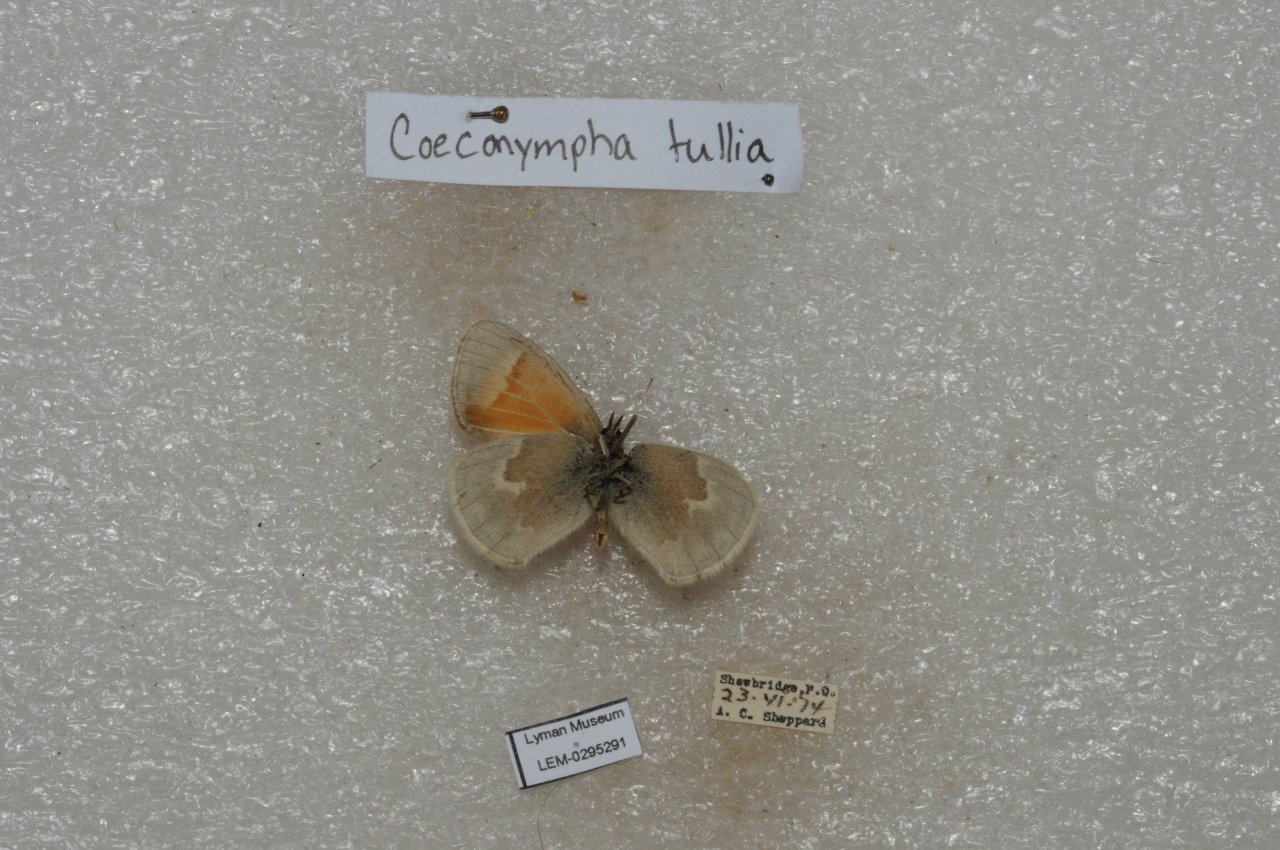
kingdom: Animalia
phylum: Arthropoda
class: Insecta
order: Lepidoptera
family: Nymphalidae
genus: Coenonympha
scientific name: Coenonympha tullia
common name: Large Heath
